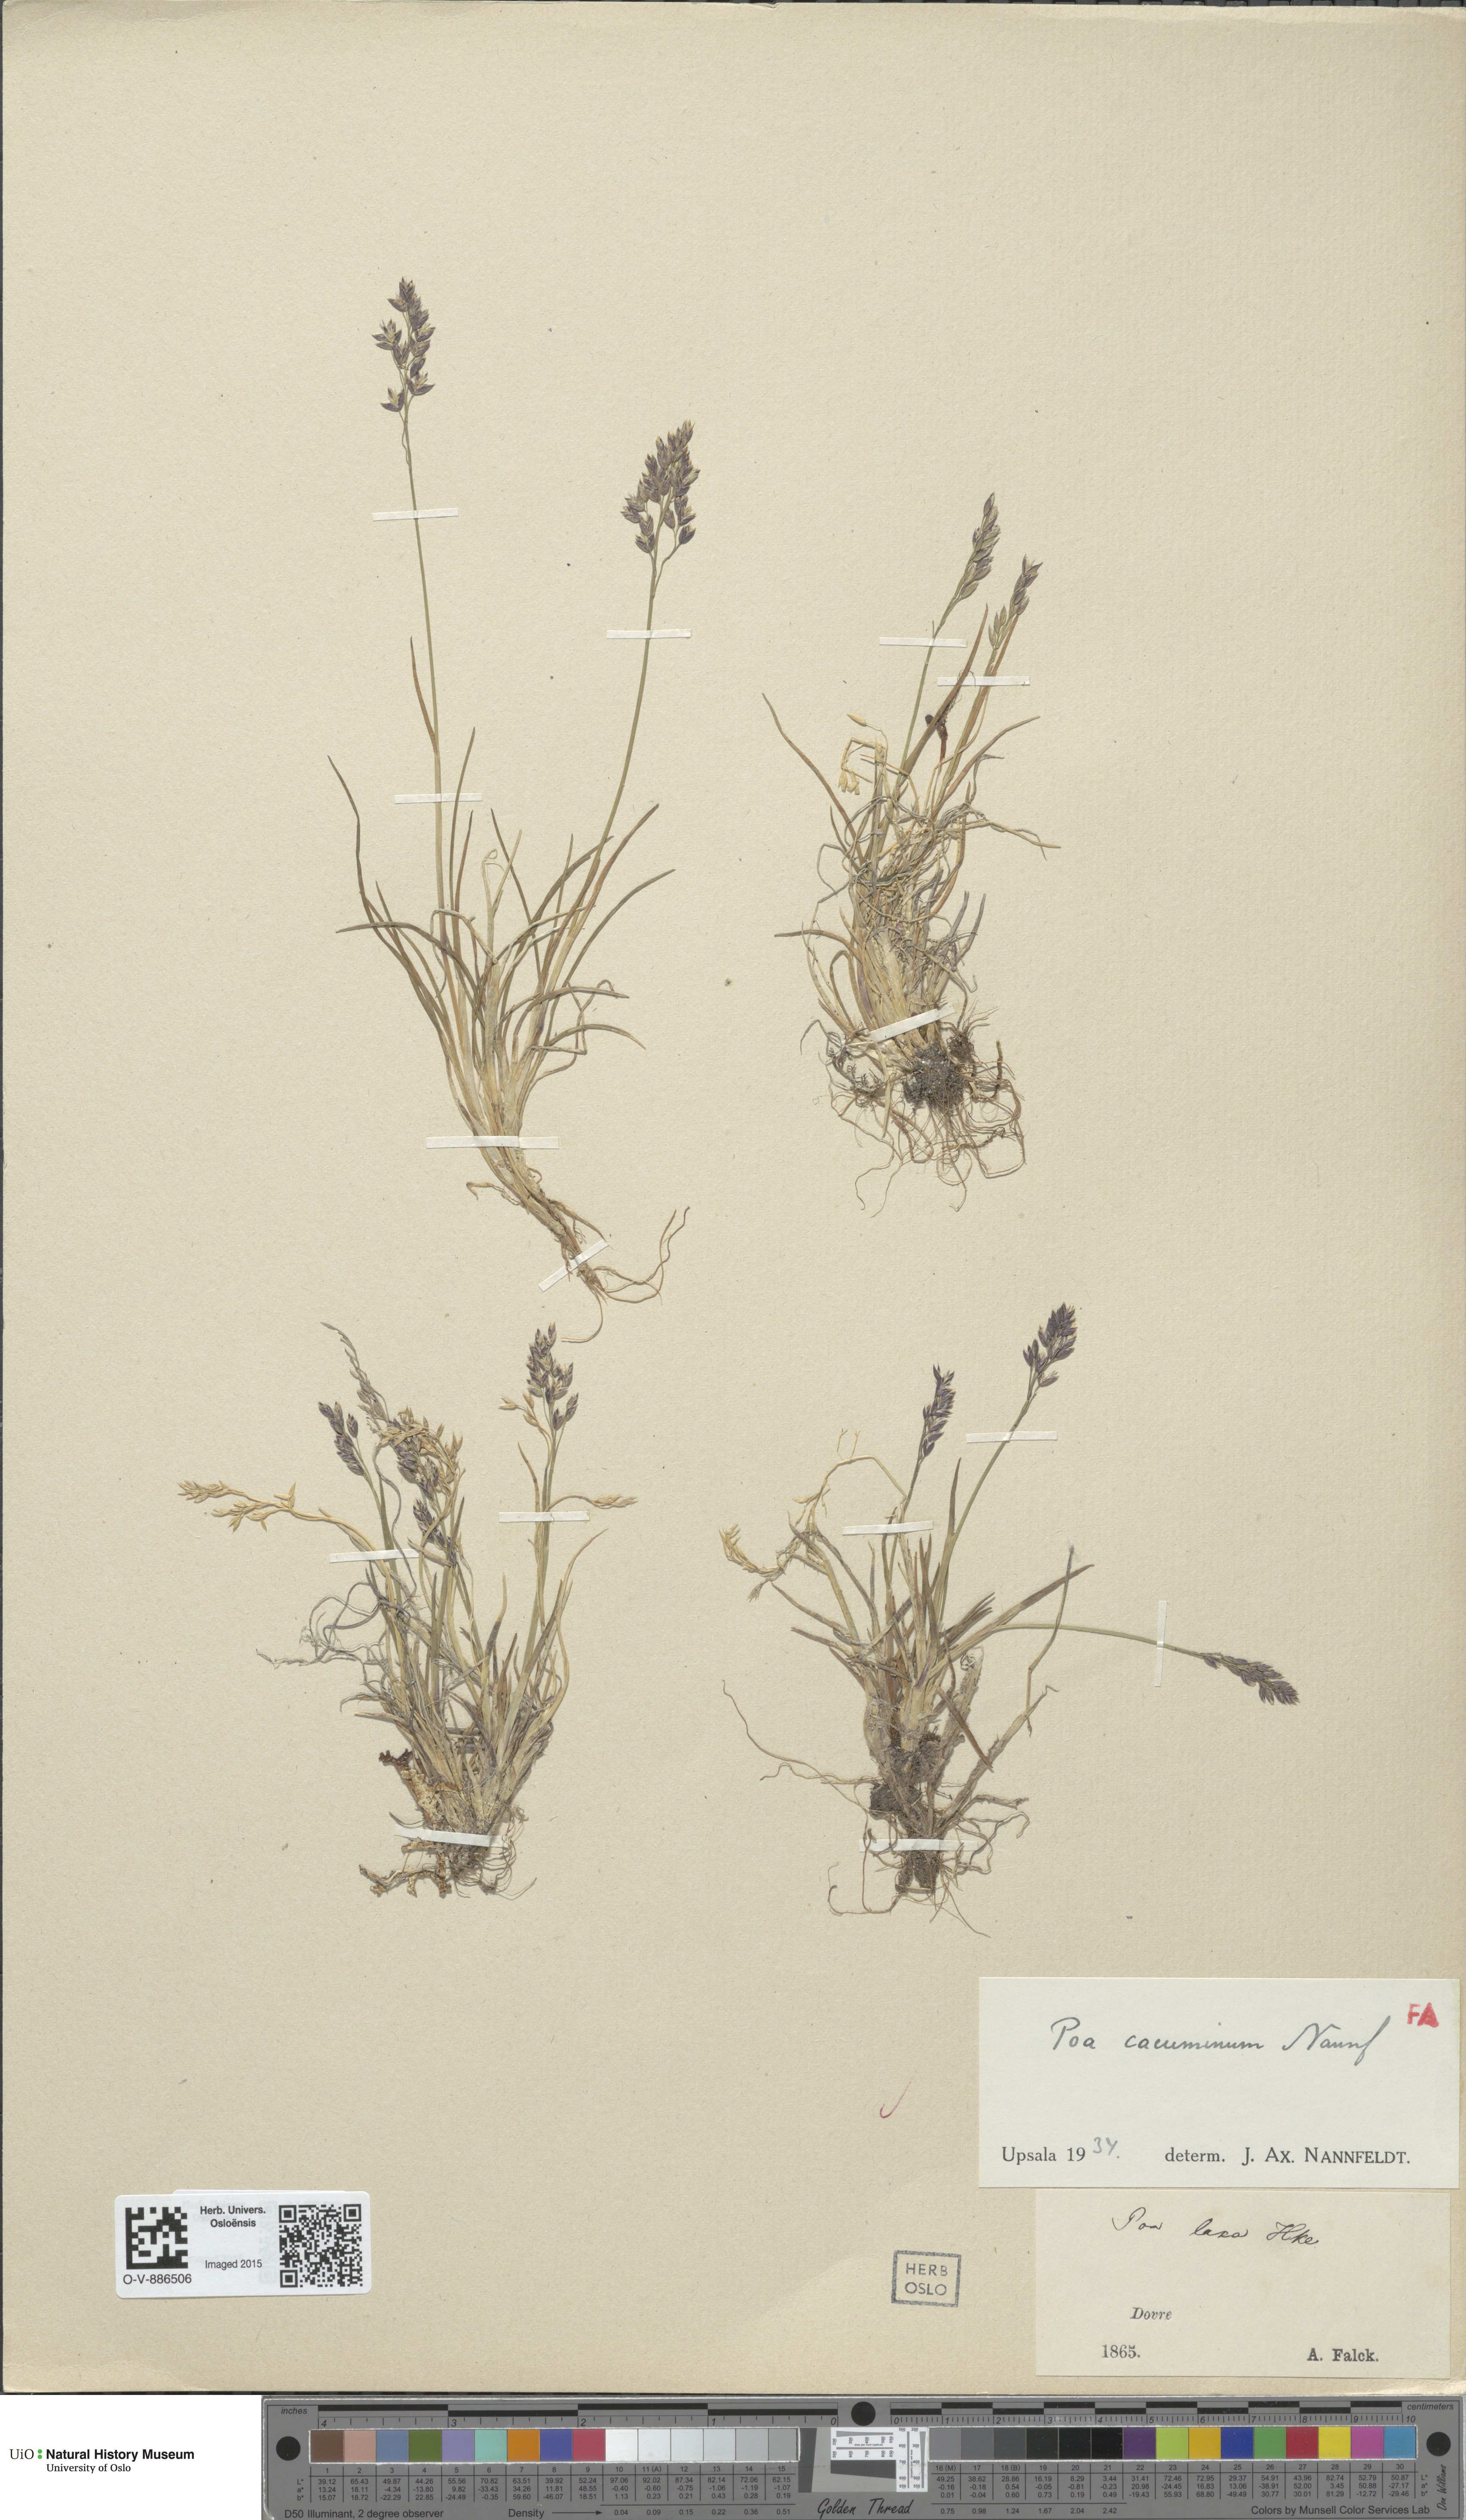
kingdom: Plantae
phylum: Tracheophyta
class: Liliopsida
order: Poales
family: Poaceae
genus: Poa
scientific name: Poa flexuosa
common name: Wavy meadow-grass
